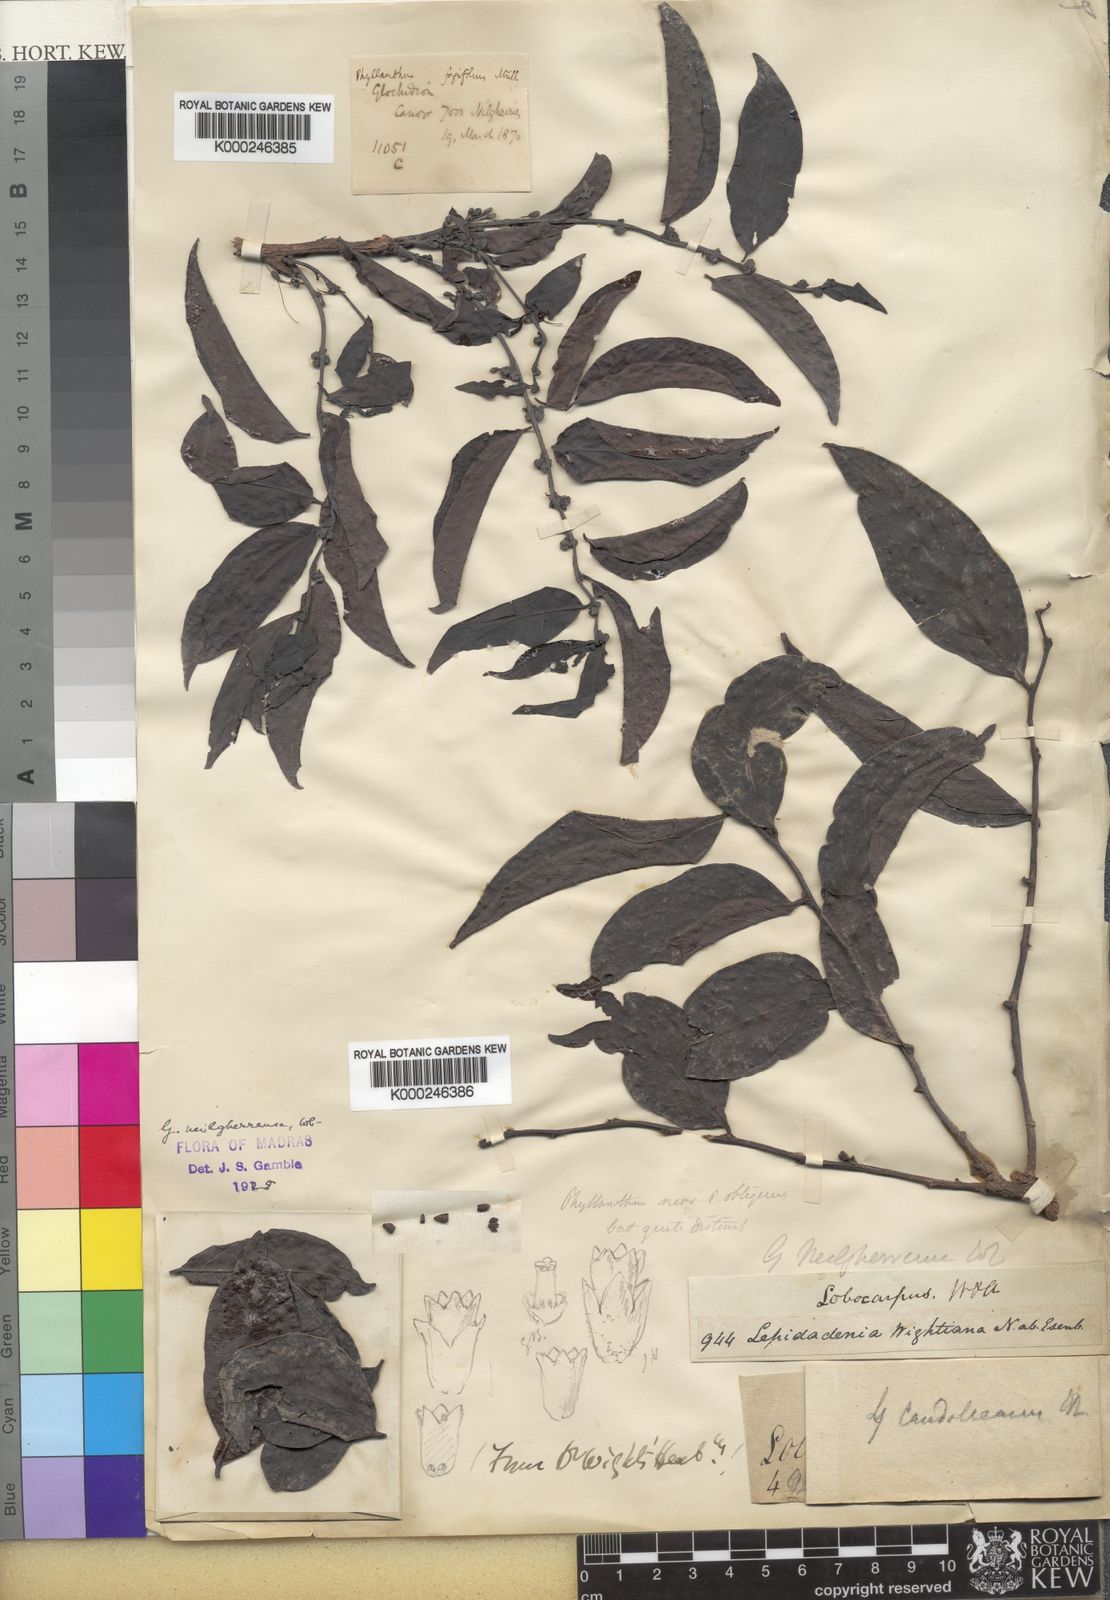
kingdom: Plantae
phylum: Tracheophyta
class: Magnoliopsida
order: Malpighiales
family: Phyllanthaceae
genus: Glochidion
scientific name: Glochidion candolleanum
